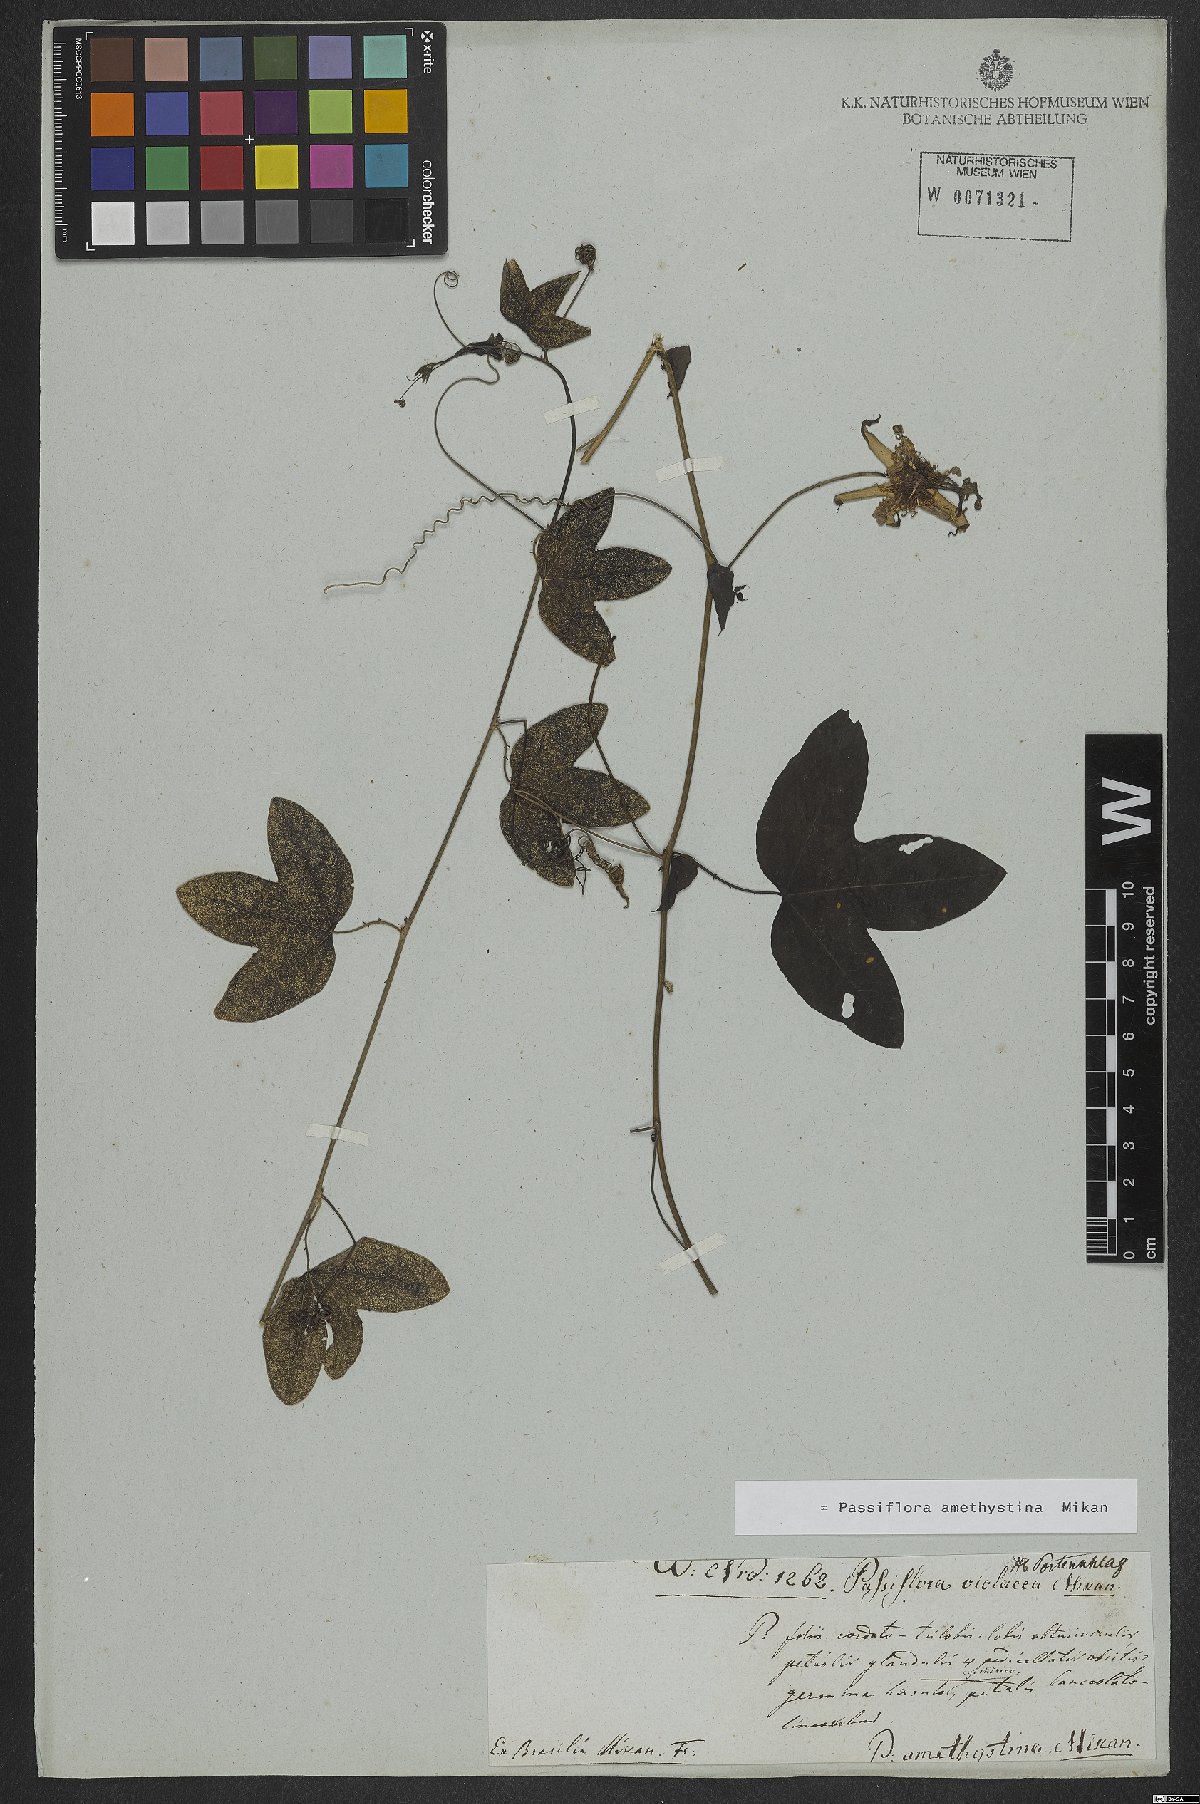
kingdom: Plantae
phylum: Tracheophyta
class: Magnoliopsida
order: Malpighiales
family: Passifloraceae
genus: Passiflora
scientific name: Passiflora amethystina
